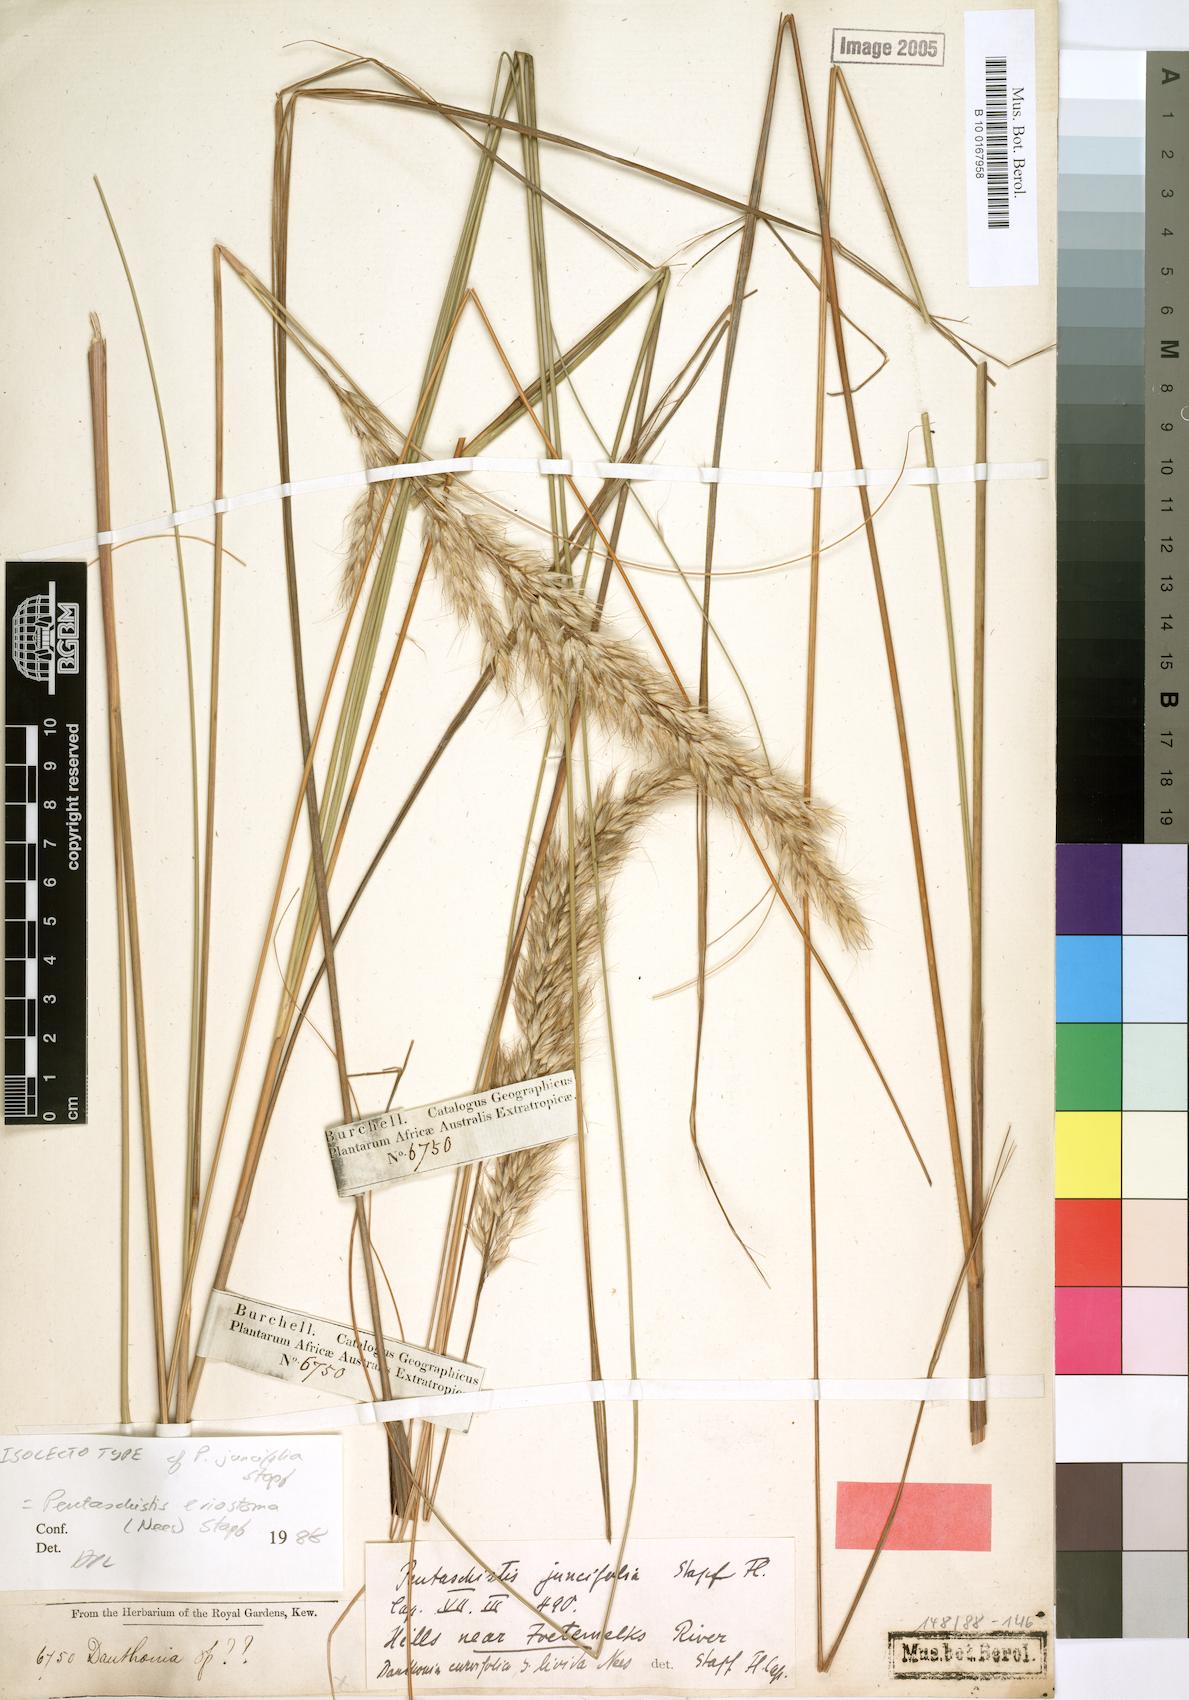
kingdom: Plantae
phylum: Tracheophyta
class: Liliopsida
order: Poales
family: Poaceae
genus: Pentameris
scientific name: Pentameris eriostoma
